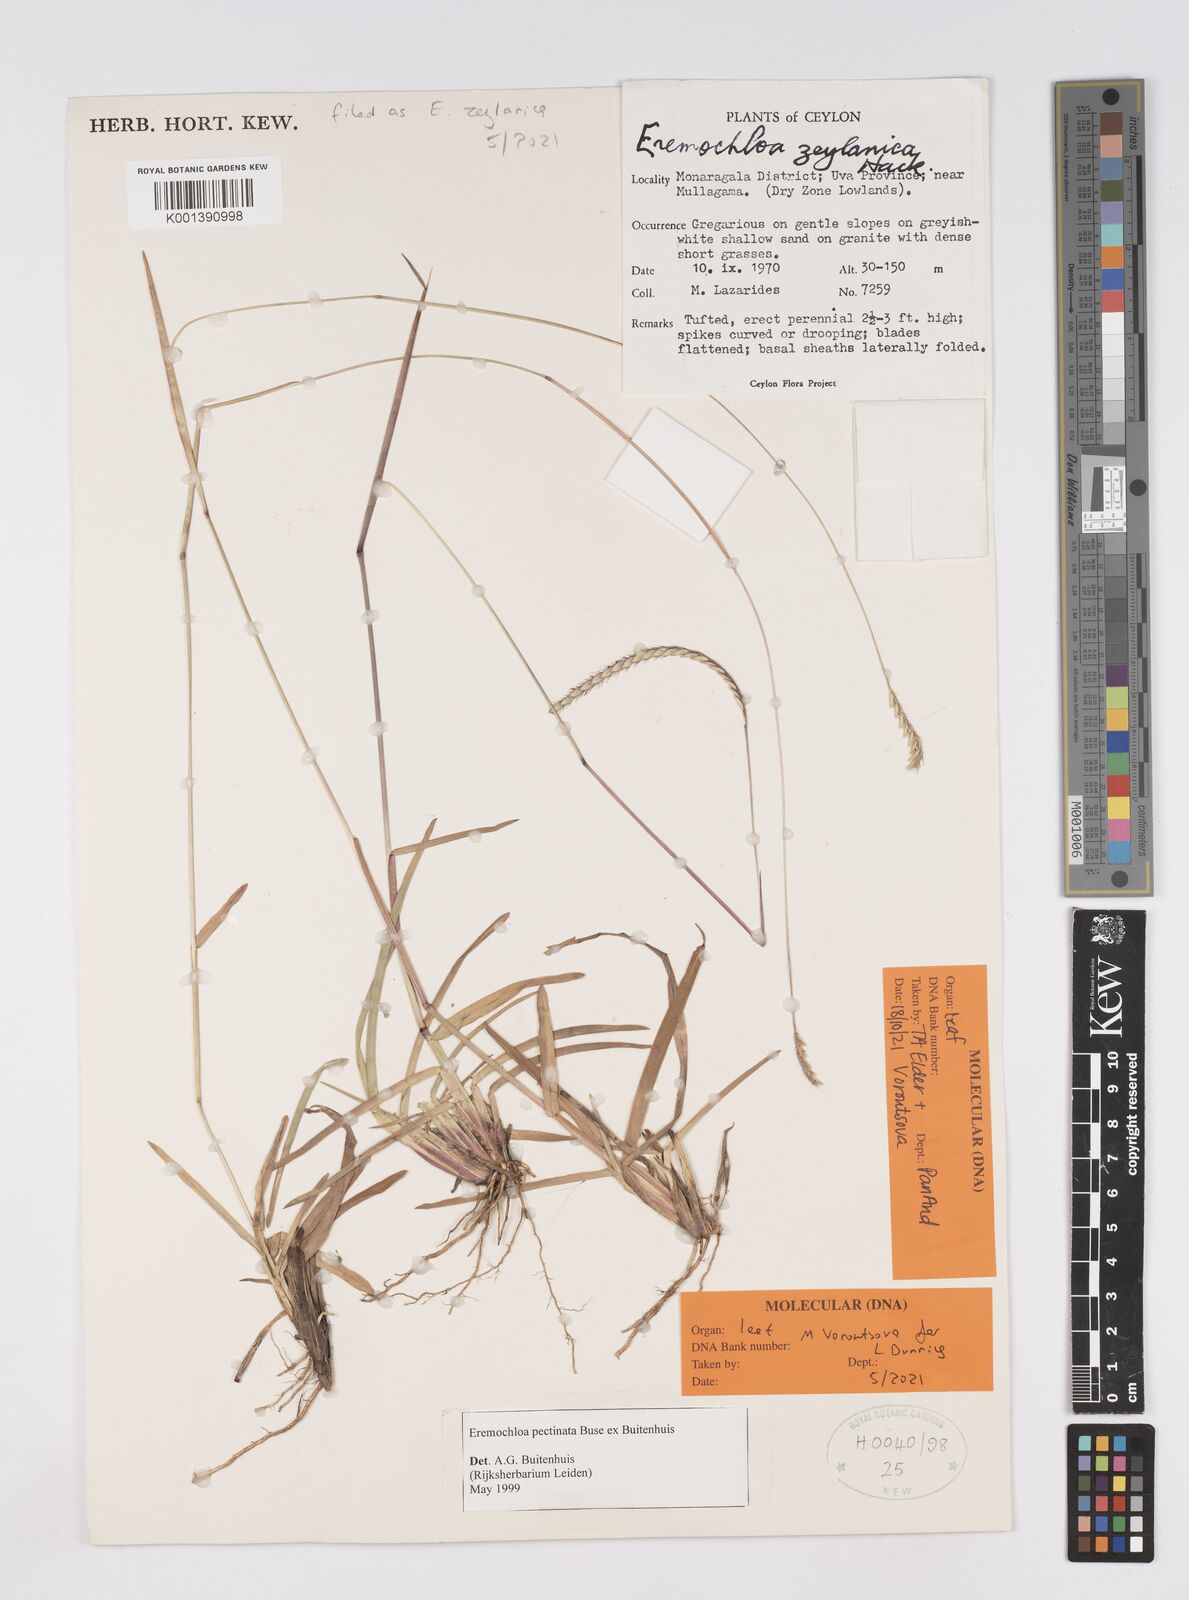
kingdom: Plantae
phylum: Tracheophyta
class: Liliopsida
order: Poales
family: Poaceae
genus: Eremochloa
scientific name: Eremochloa zeylanica
